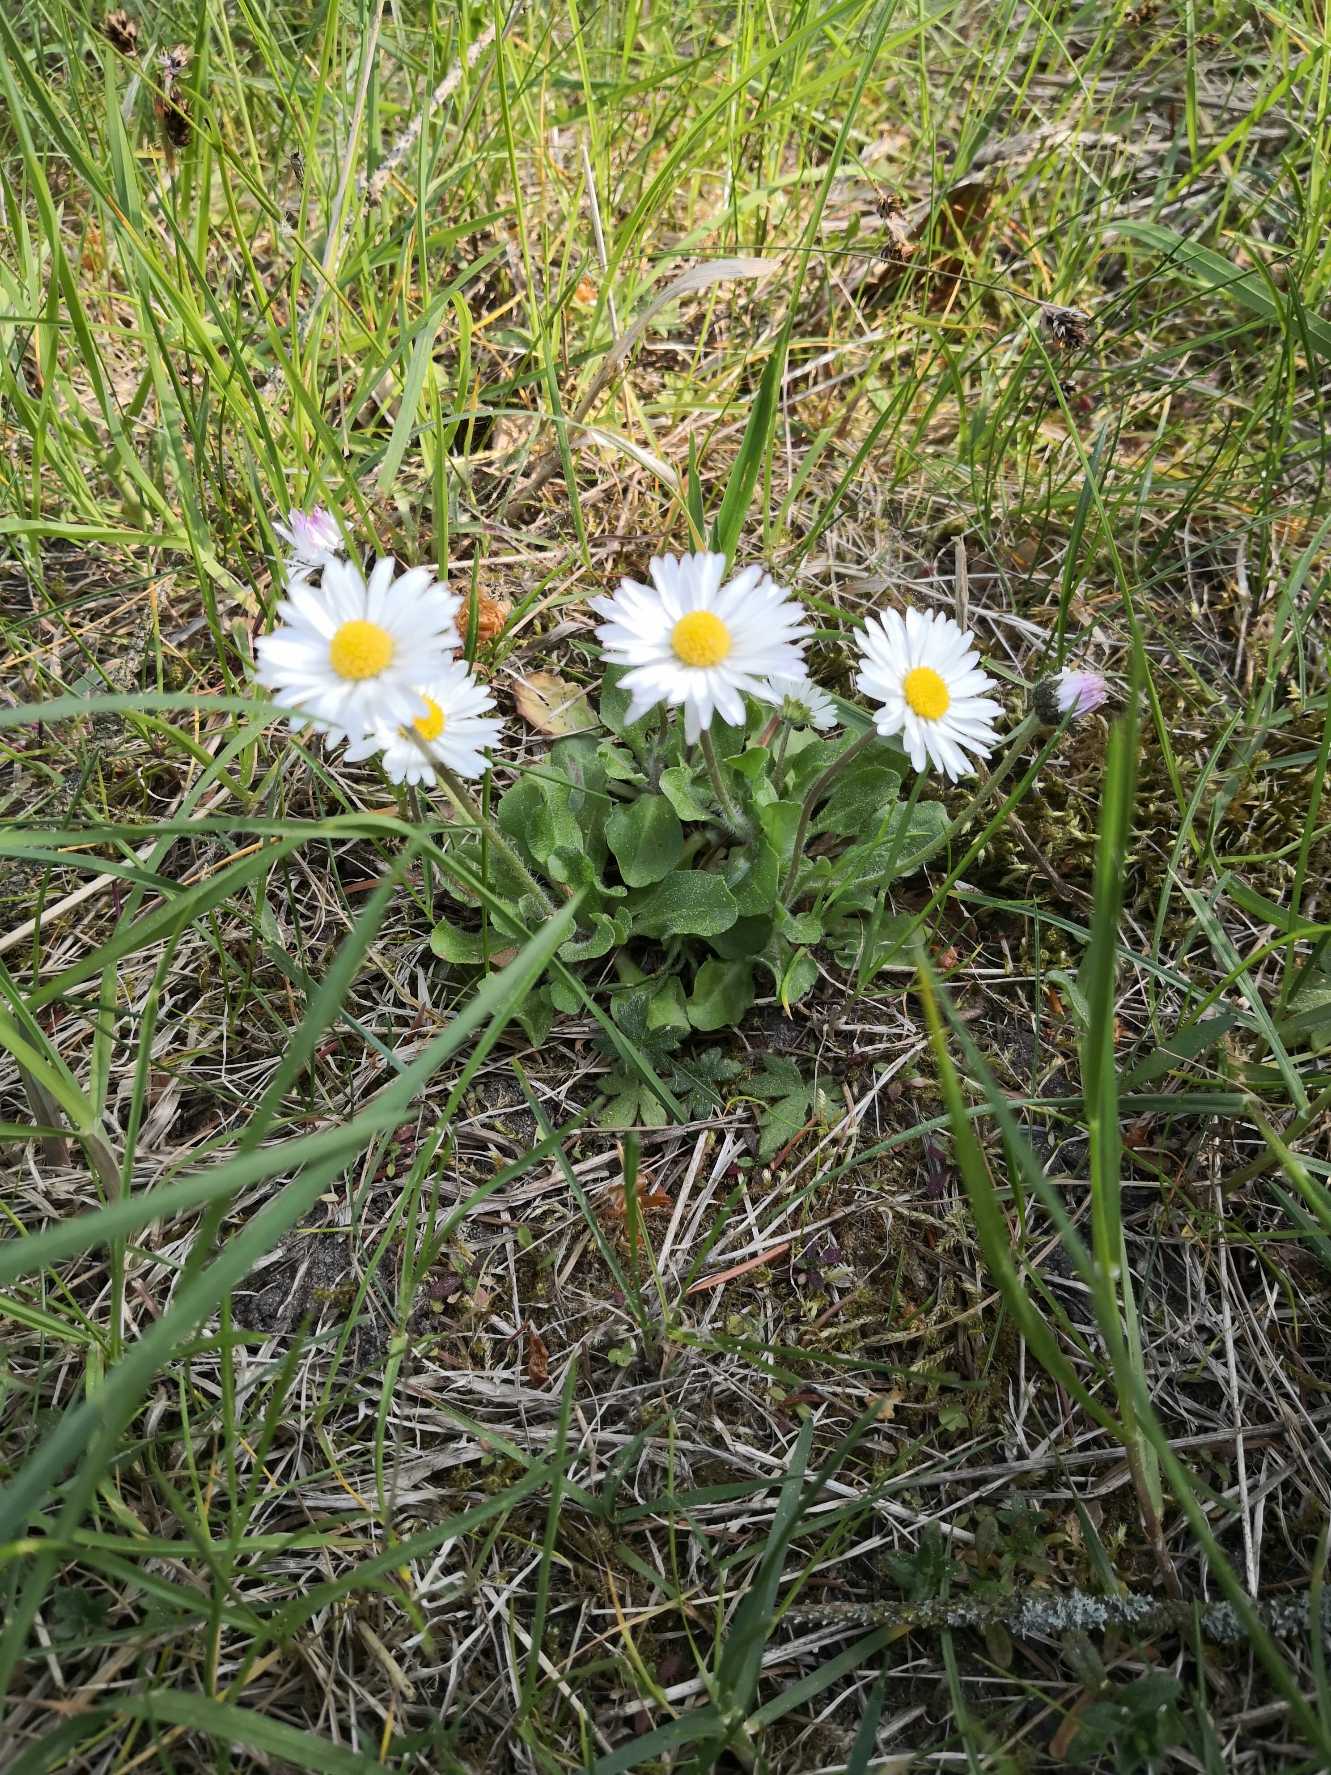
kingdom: Plantae
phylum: Tracheophyta
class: Magnoliopsida
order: Asterales
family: Asteraceae
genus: Bellis
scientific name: Bellis perennis
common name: Tusindfryd
